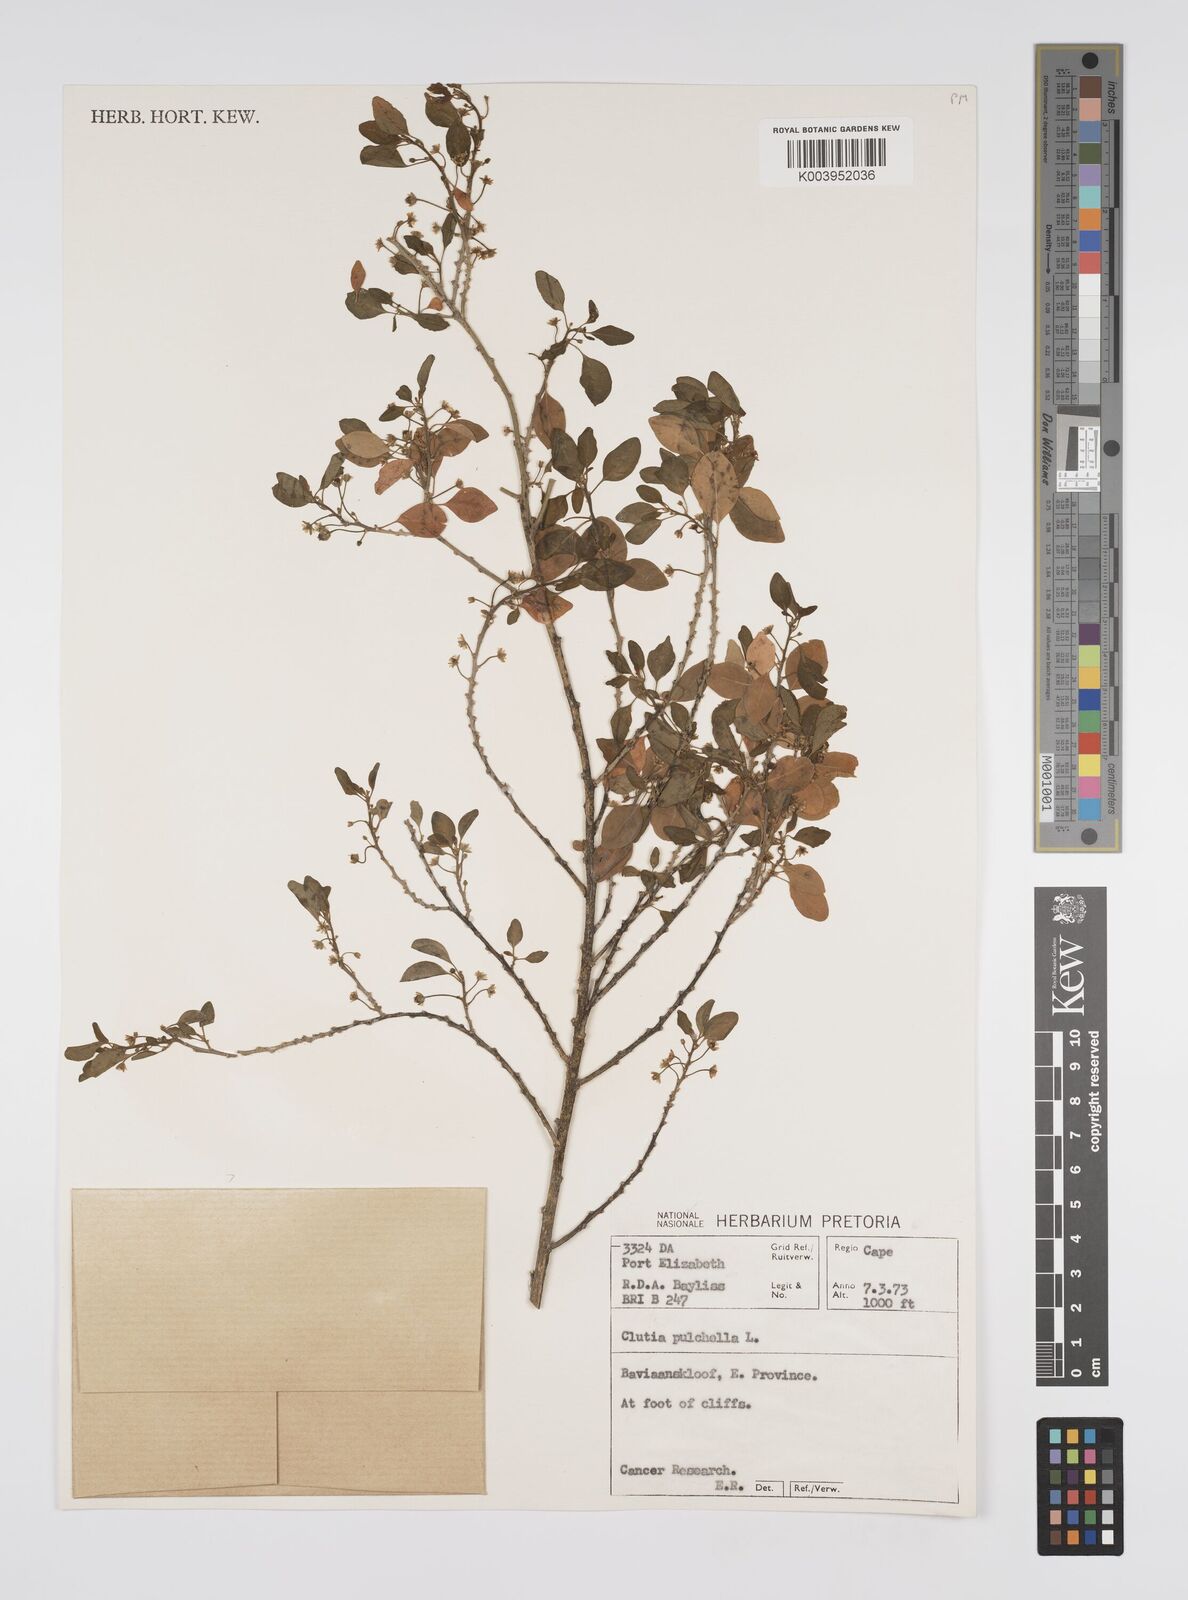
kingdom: Plantae
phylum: Tracheophyta
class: Magnoliopsida
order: Malpighiales
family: Peraceae
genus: Clutia
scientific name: Clutia pulchella
